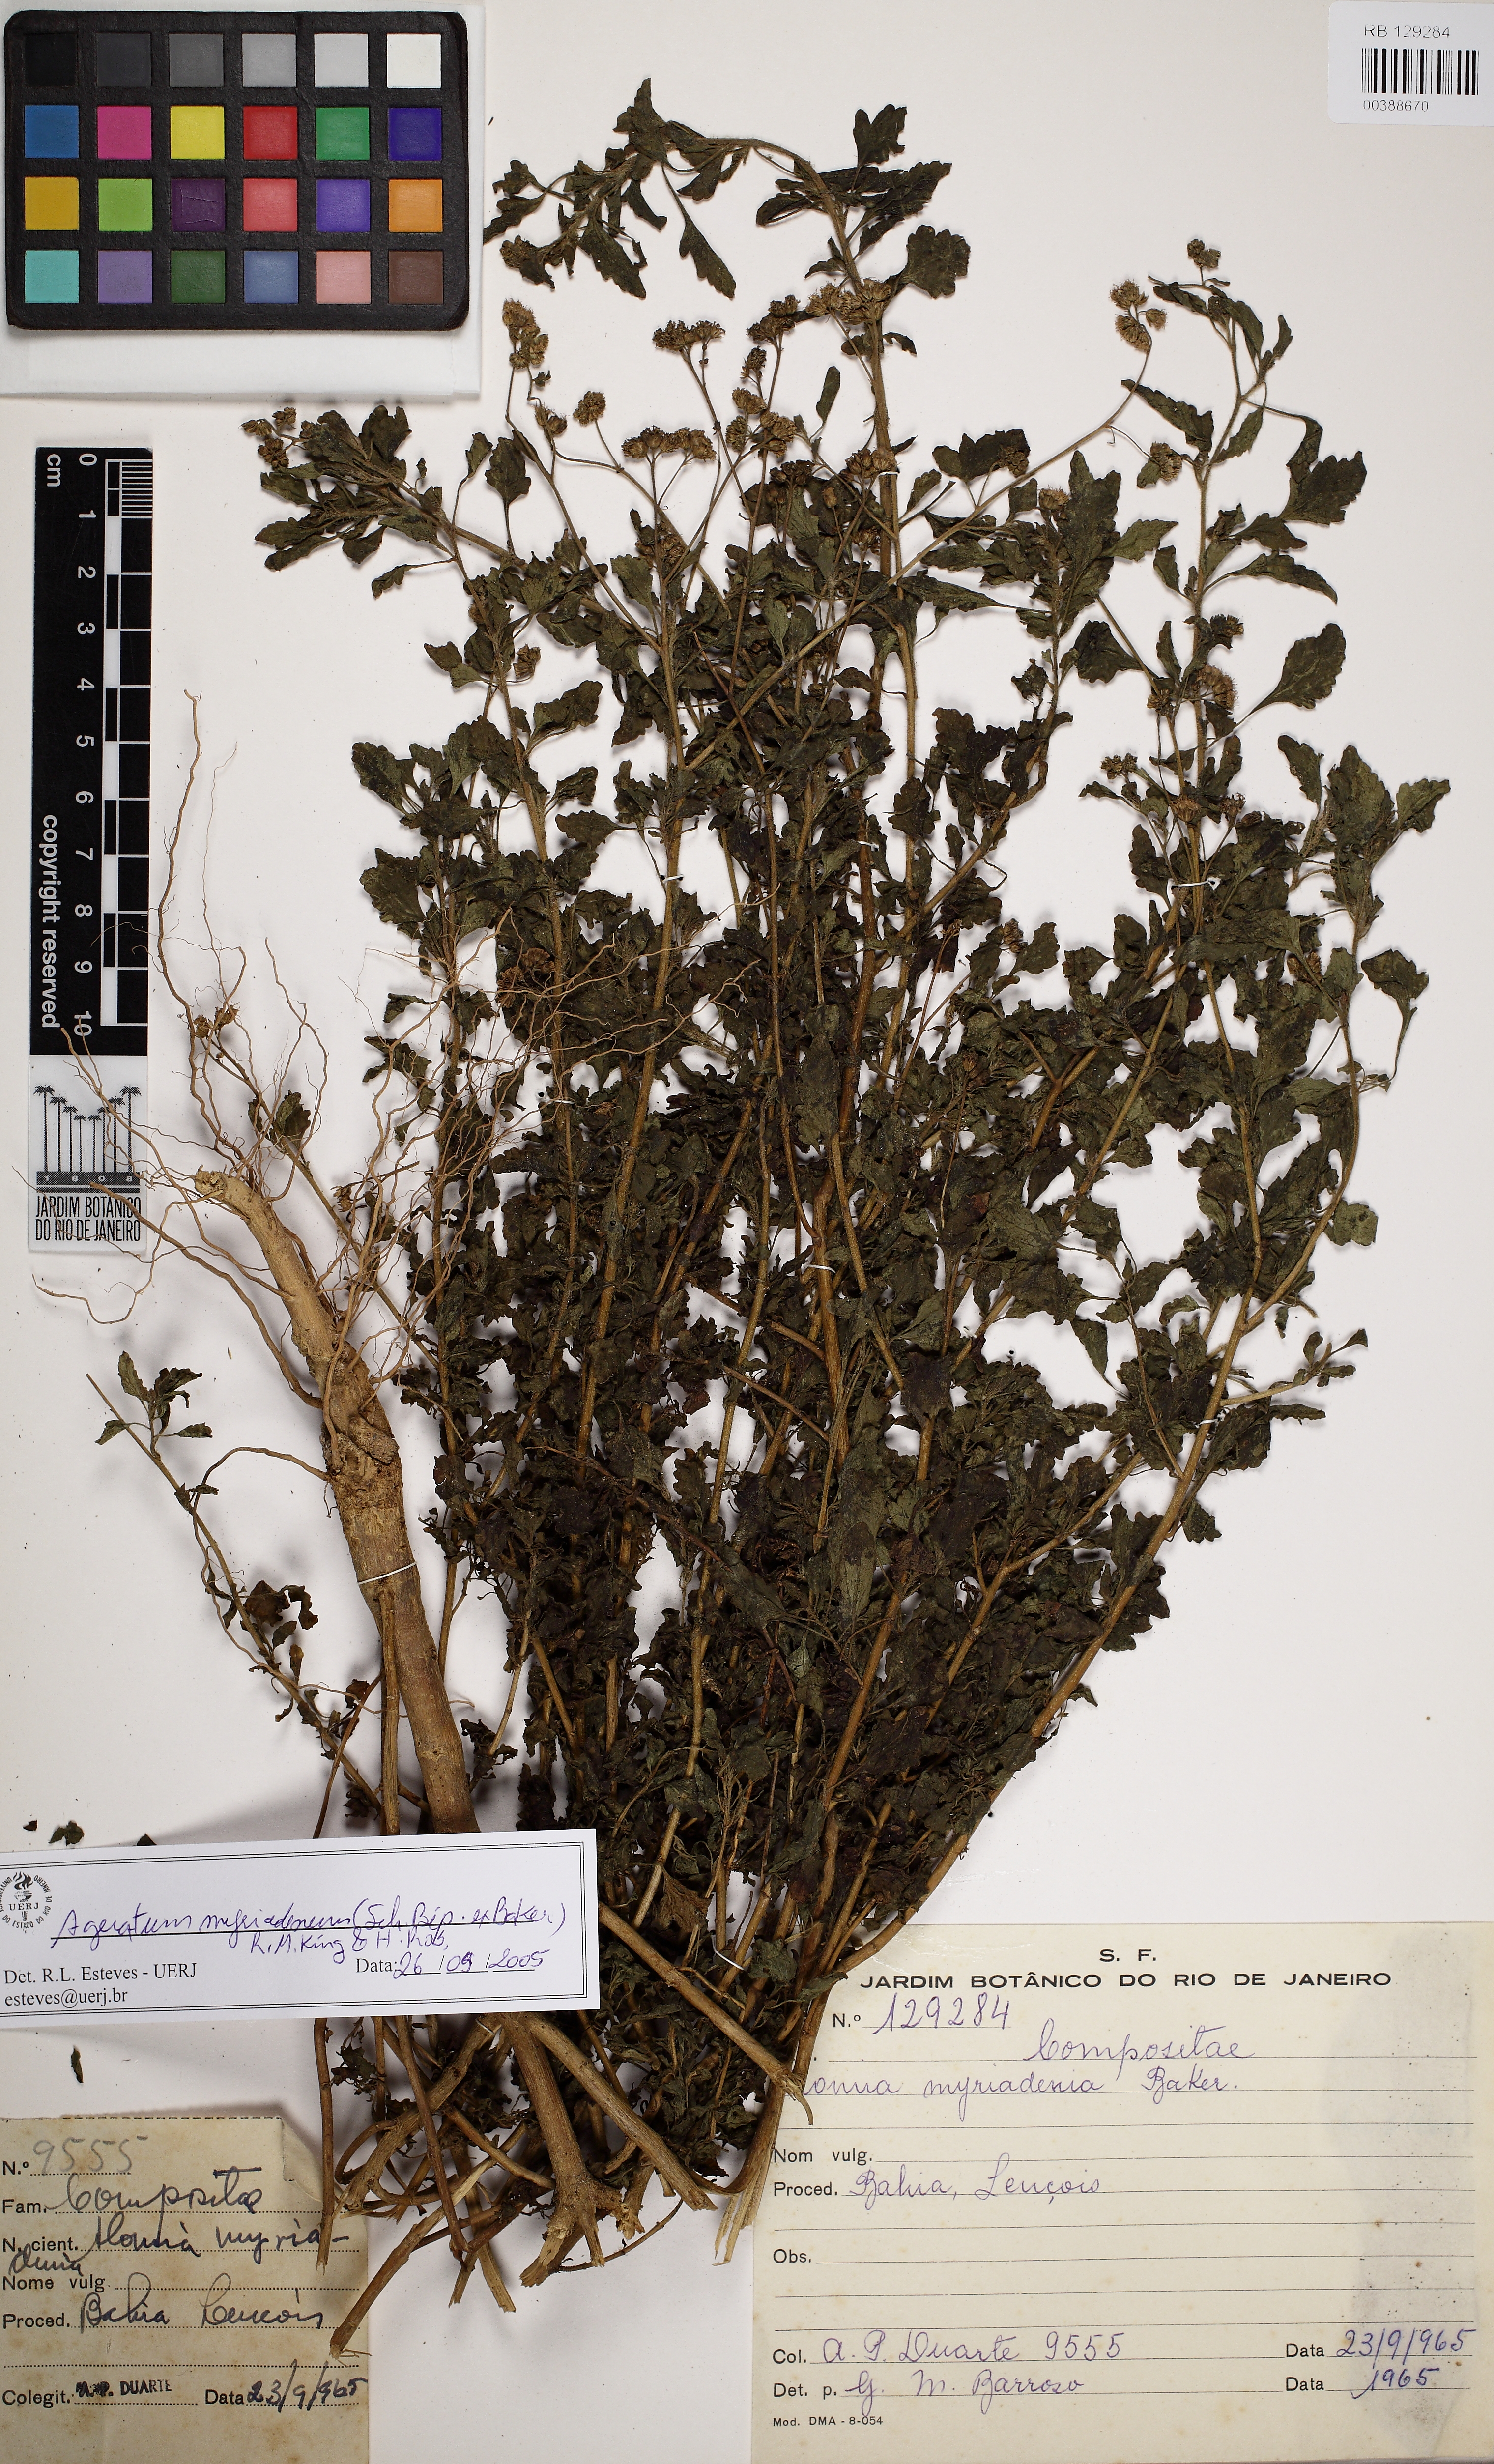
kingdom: Plantae
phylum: Tracheophyta
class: Magnoliopsida
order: Asterales
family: Asteraceae
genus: Ageratum
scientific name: Ageratum myriadenium
